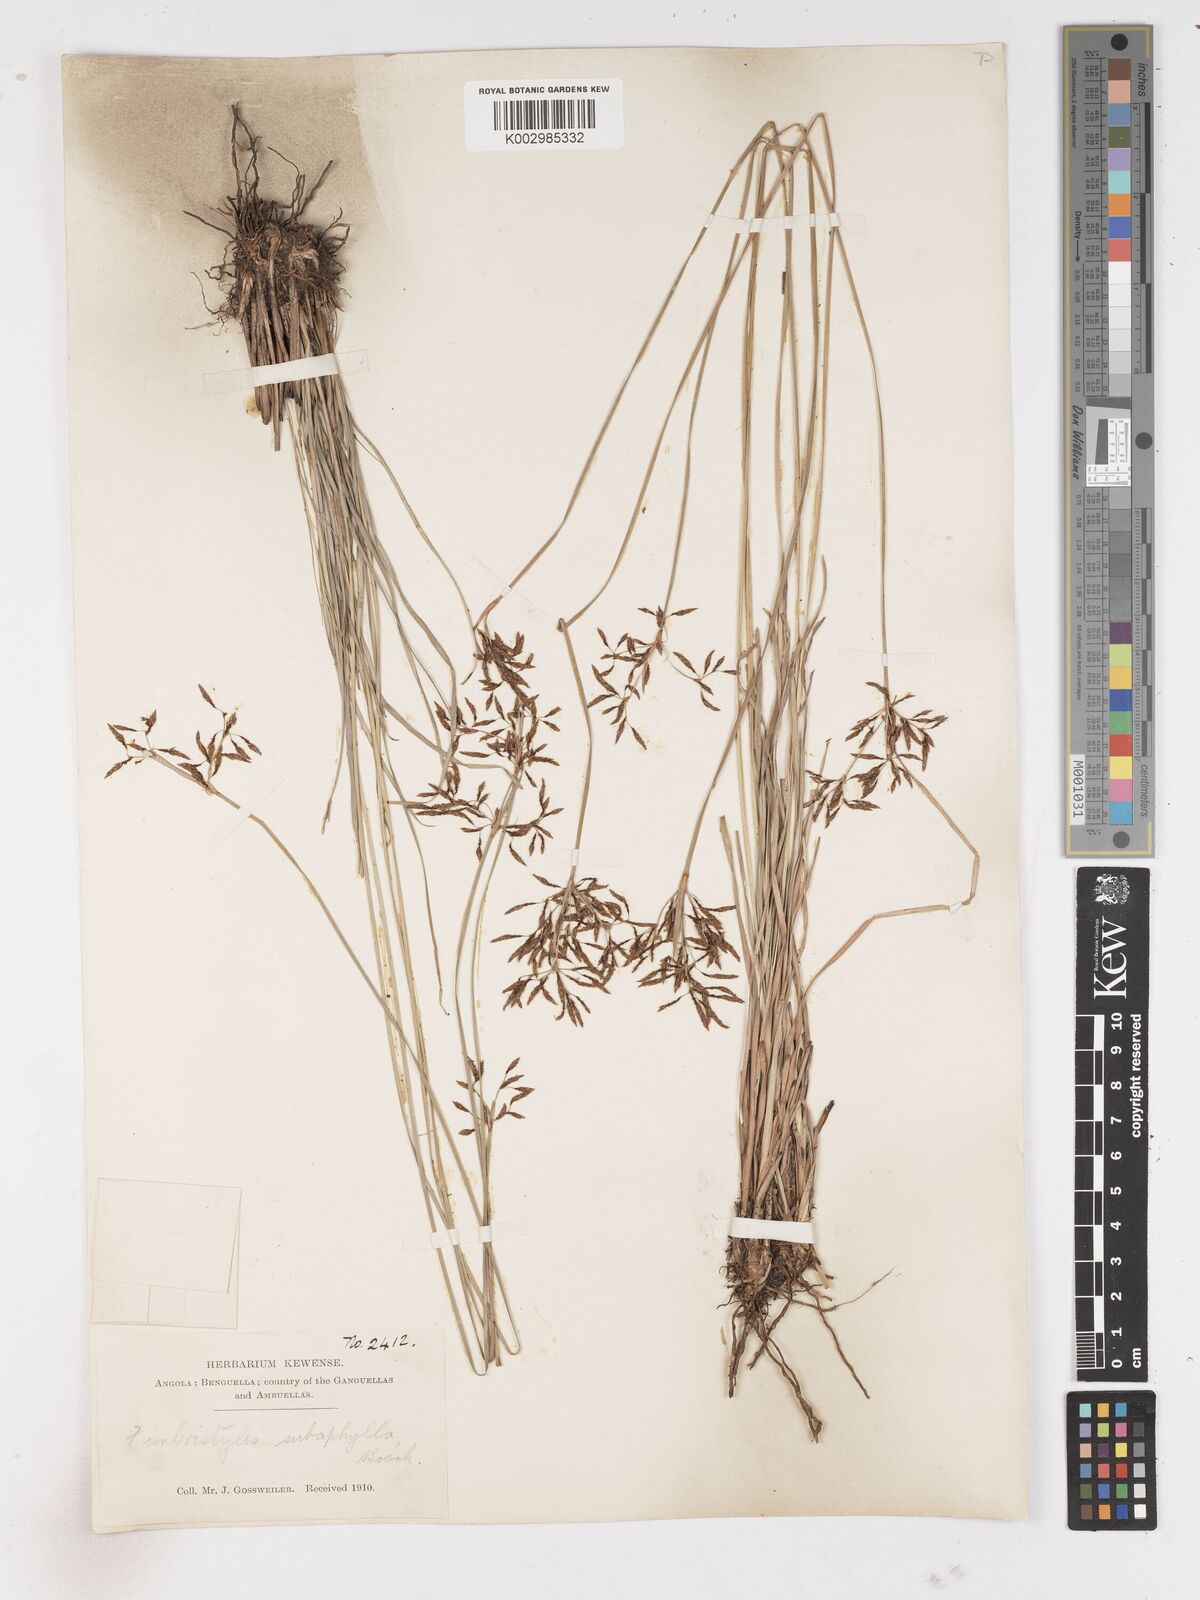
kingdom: Plantae
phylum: Tracheophyta
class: Liliopsida
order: Poales
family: Cyperaceae
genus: Fimbristylis
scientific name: Fimbristylis complanata
